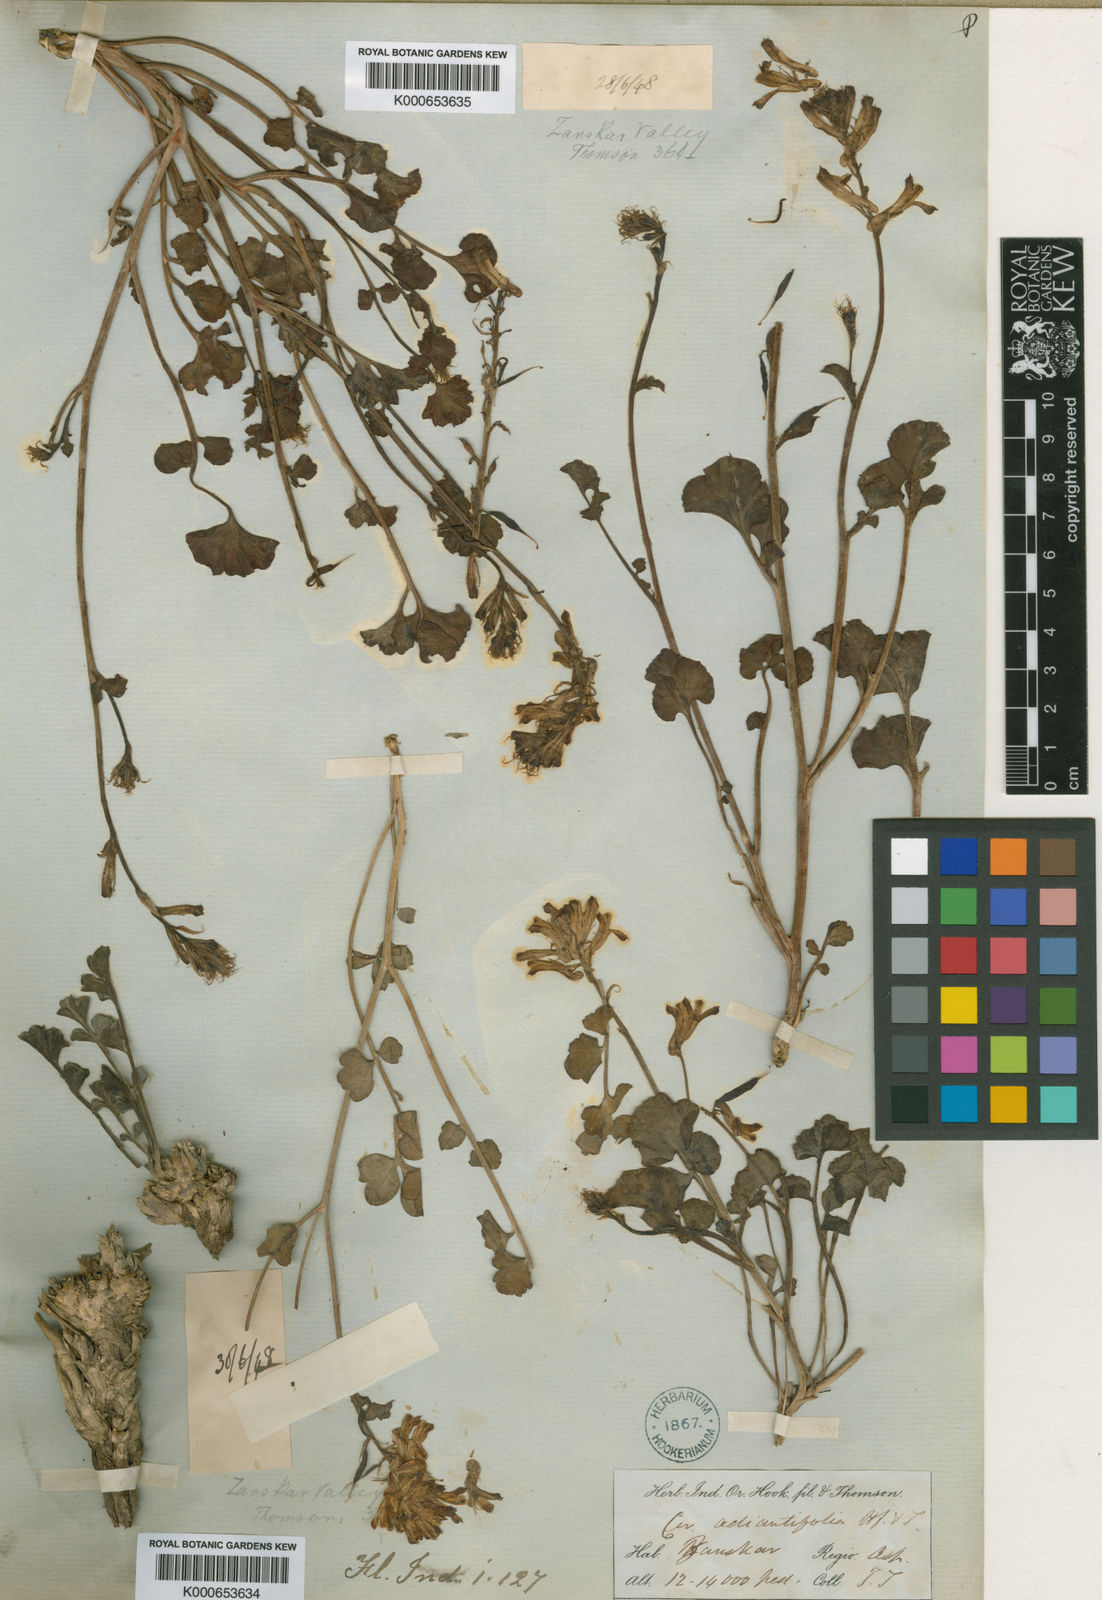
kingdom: Plantae
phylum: Tracheophyta
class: Magnoliopsida
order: Ranunculales
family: Papaveraceae
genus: Corydalis
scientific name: Corydalis adiantifolia
